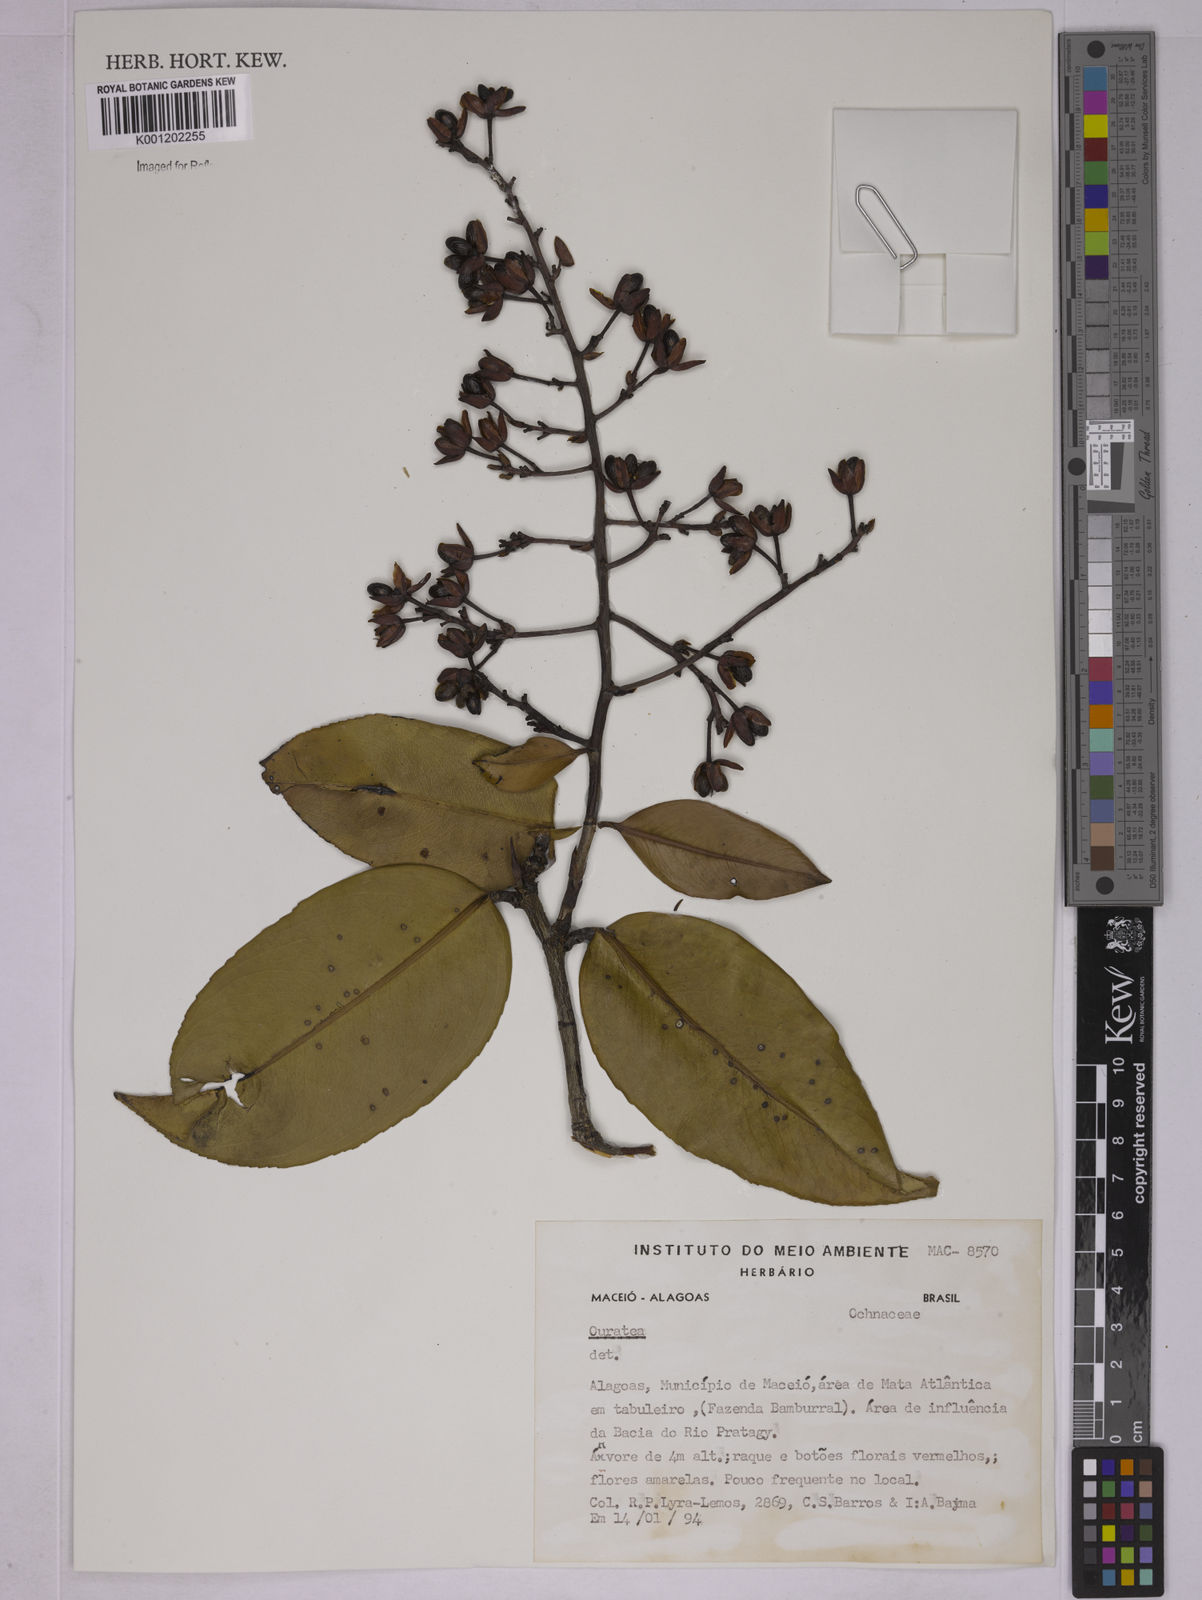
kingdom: Plantae
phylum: Tracheophyta
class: Magnoliopsida
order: Malpighiales
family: Ochnaceae
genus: Ouratea
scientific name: Ouratea
